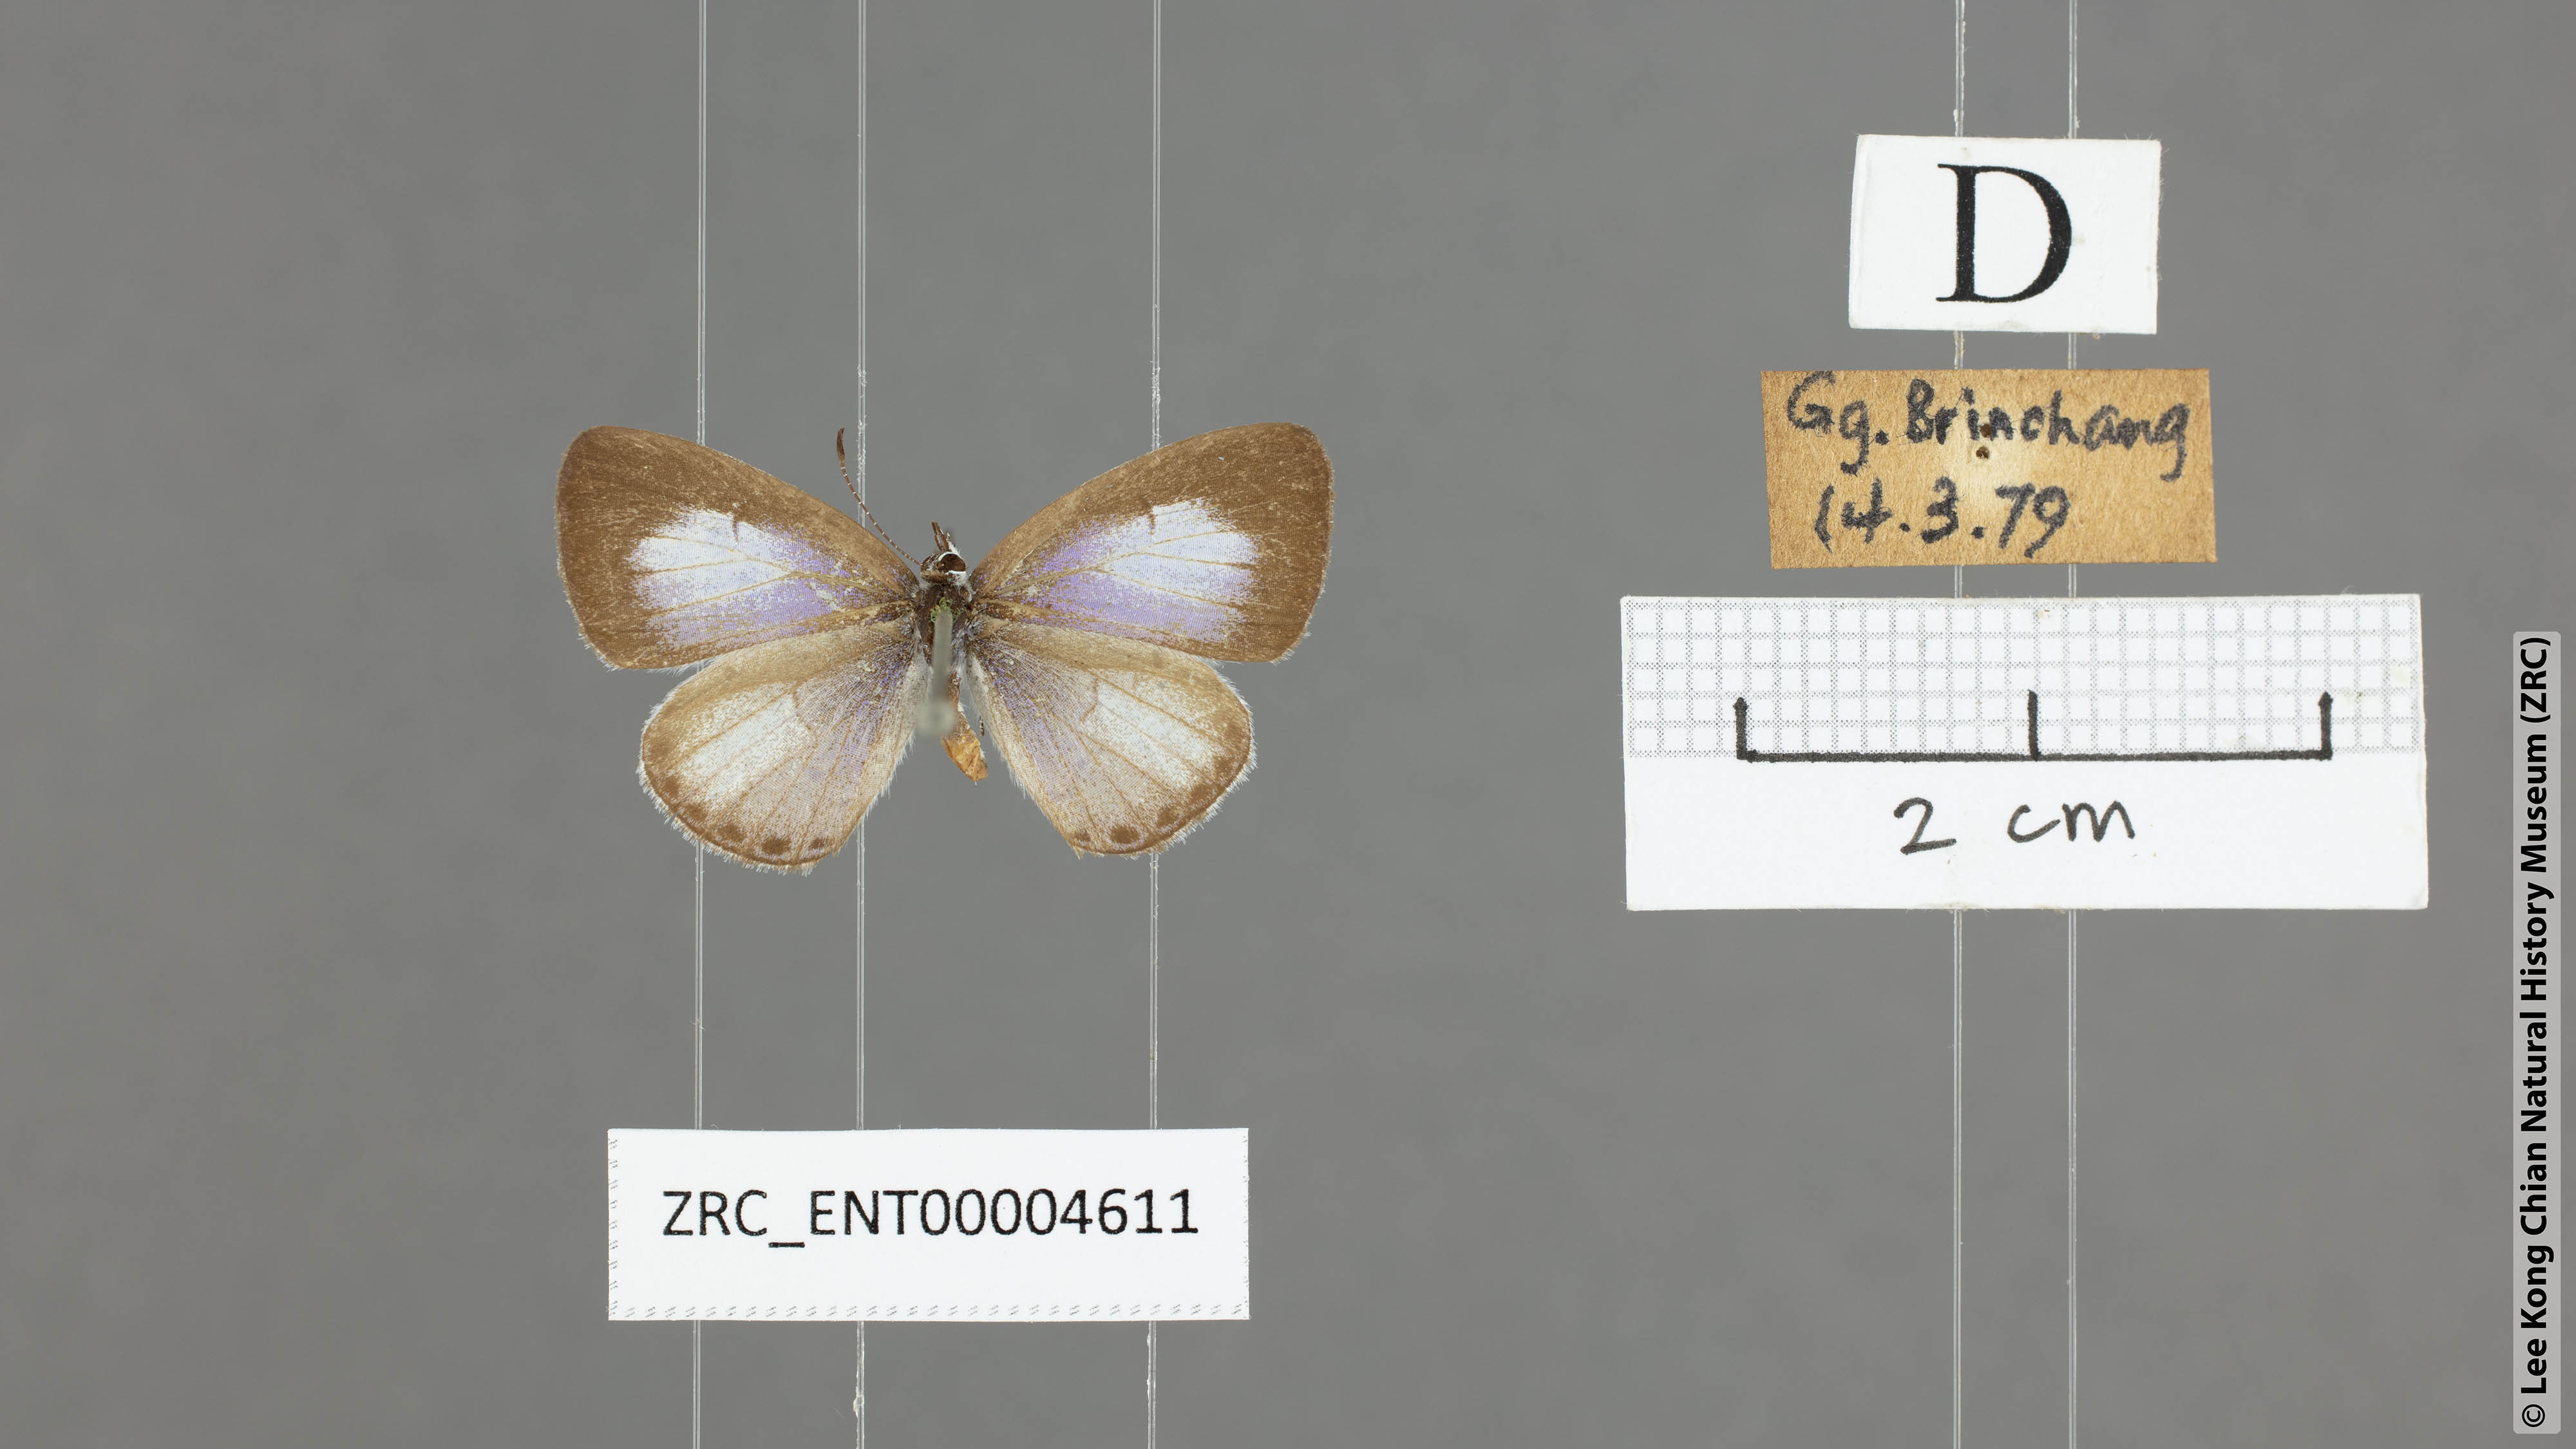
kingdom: Animalia
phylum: Arthropoda
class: Insecta
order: Lepidoptera
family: Lycaenidae
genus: Udara
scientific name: Udara akasa
